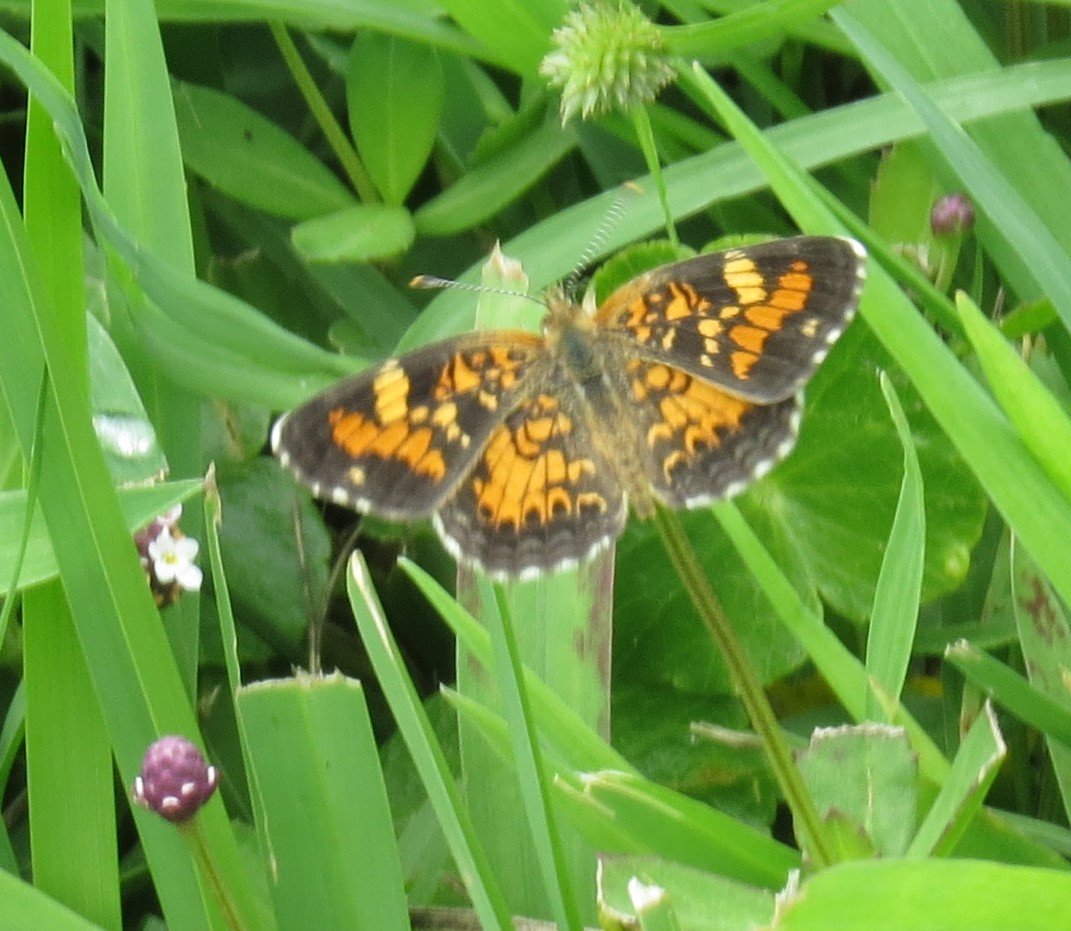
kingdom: Animalia
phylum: Arthropoda
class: Insecta
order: Lepidoptera
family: Nymphalidae
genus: Phyciodes
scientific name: Phyciodes phaon
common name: Phaon Crescent
